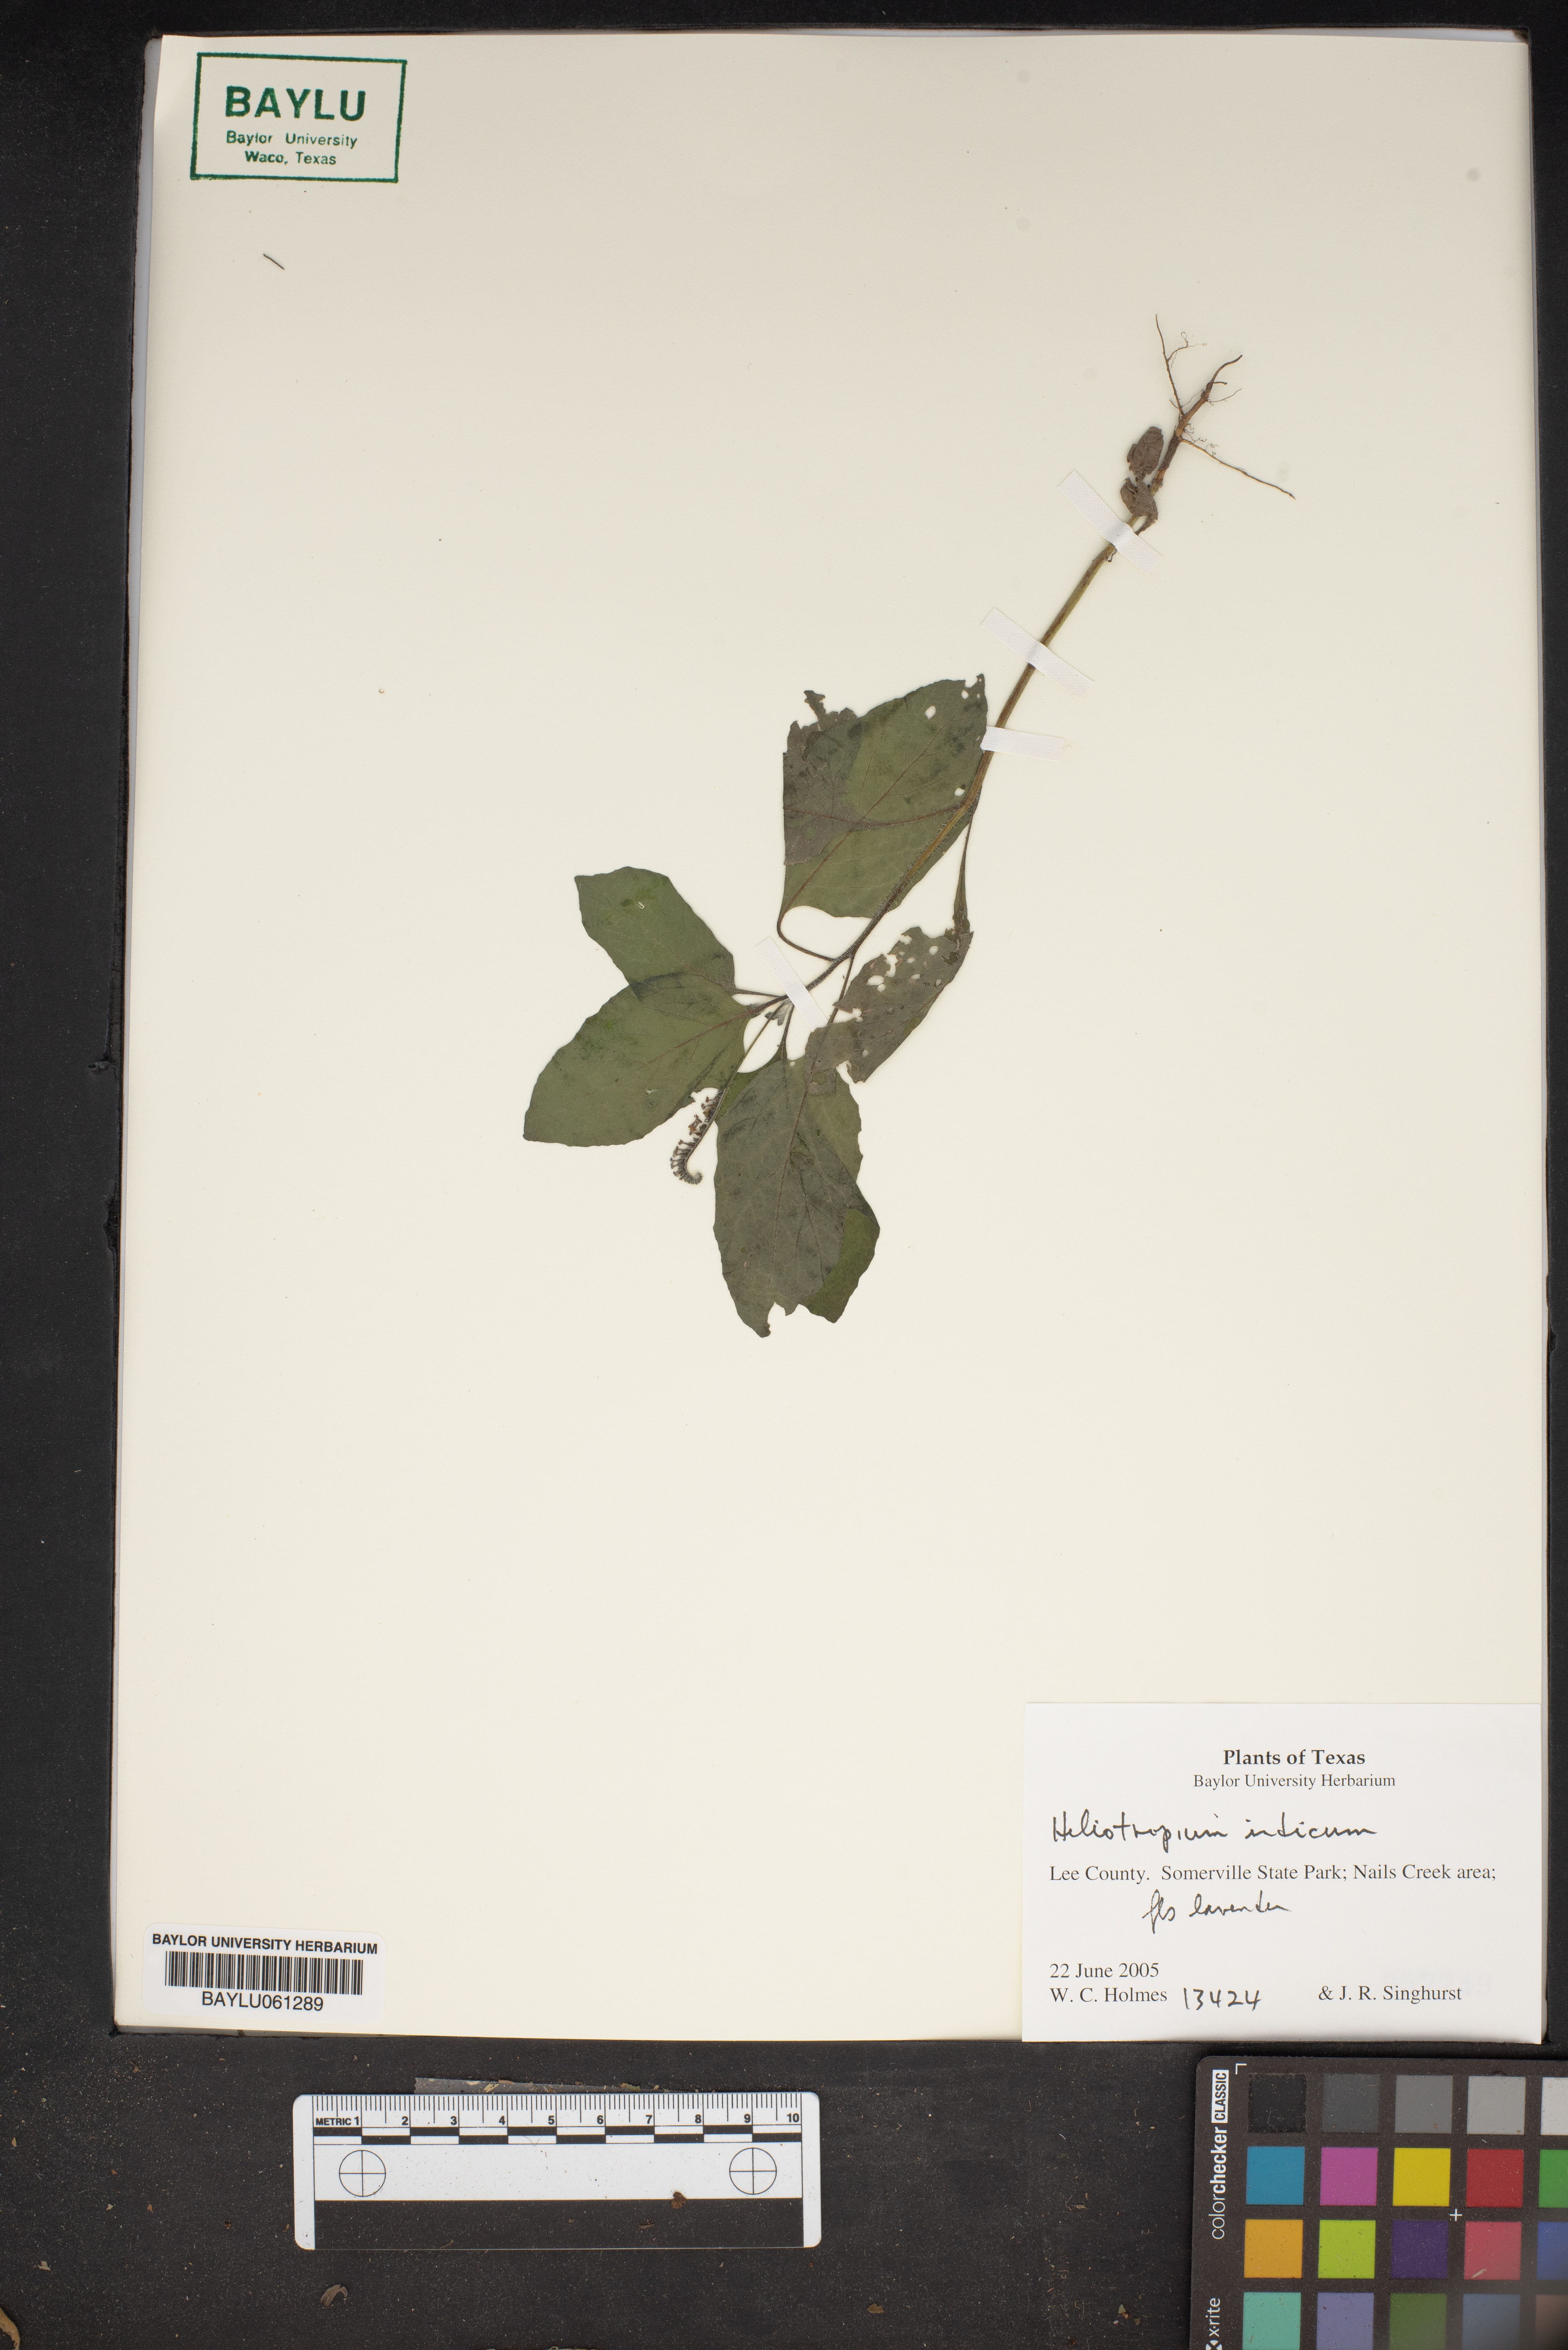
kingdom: Plantae
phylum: Tracheophyta
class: Magnoliopsida
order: Boraginales
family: Heliotropiaceae
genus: Heliotropium
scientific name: Heliotropium indicum
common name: Indian heliotrope
